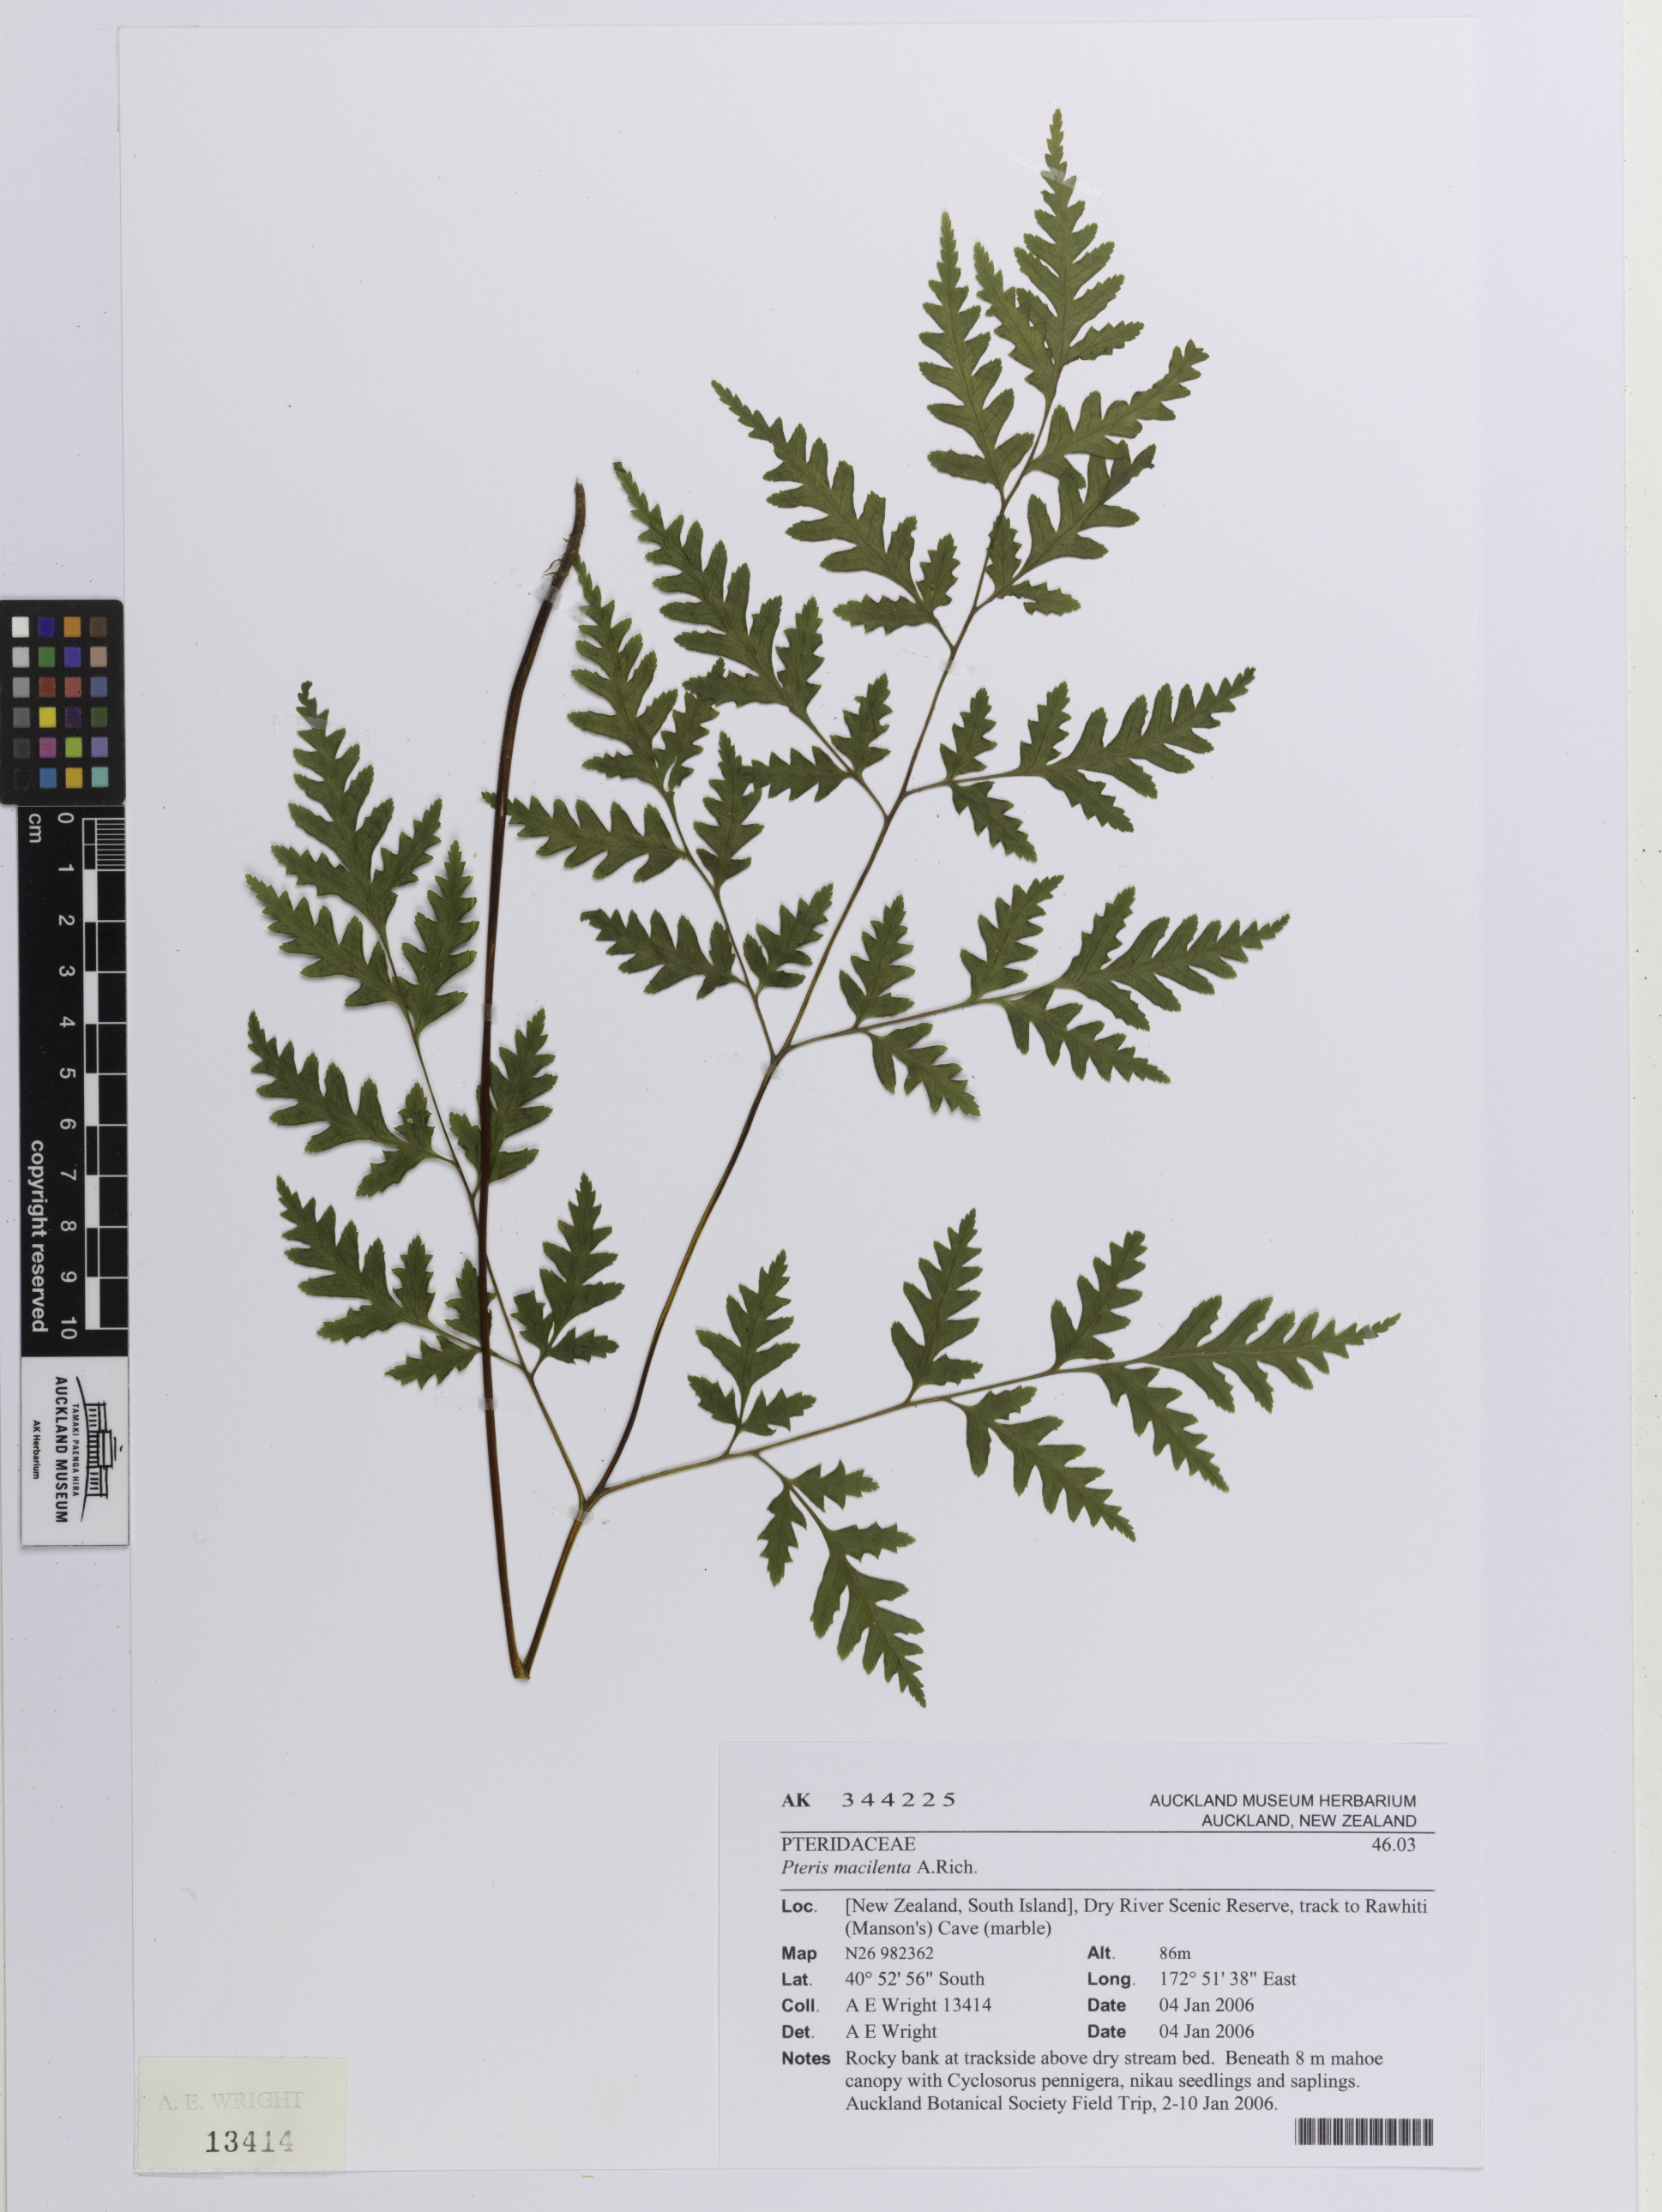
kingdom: Plantae
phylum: Tracheophyta
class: Polypodiopsida
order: Polypodiales
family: Pteridaceae
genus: Pteris
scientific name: Pteris macilenta
